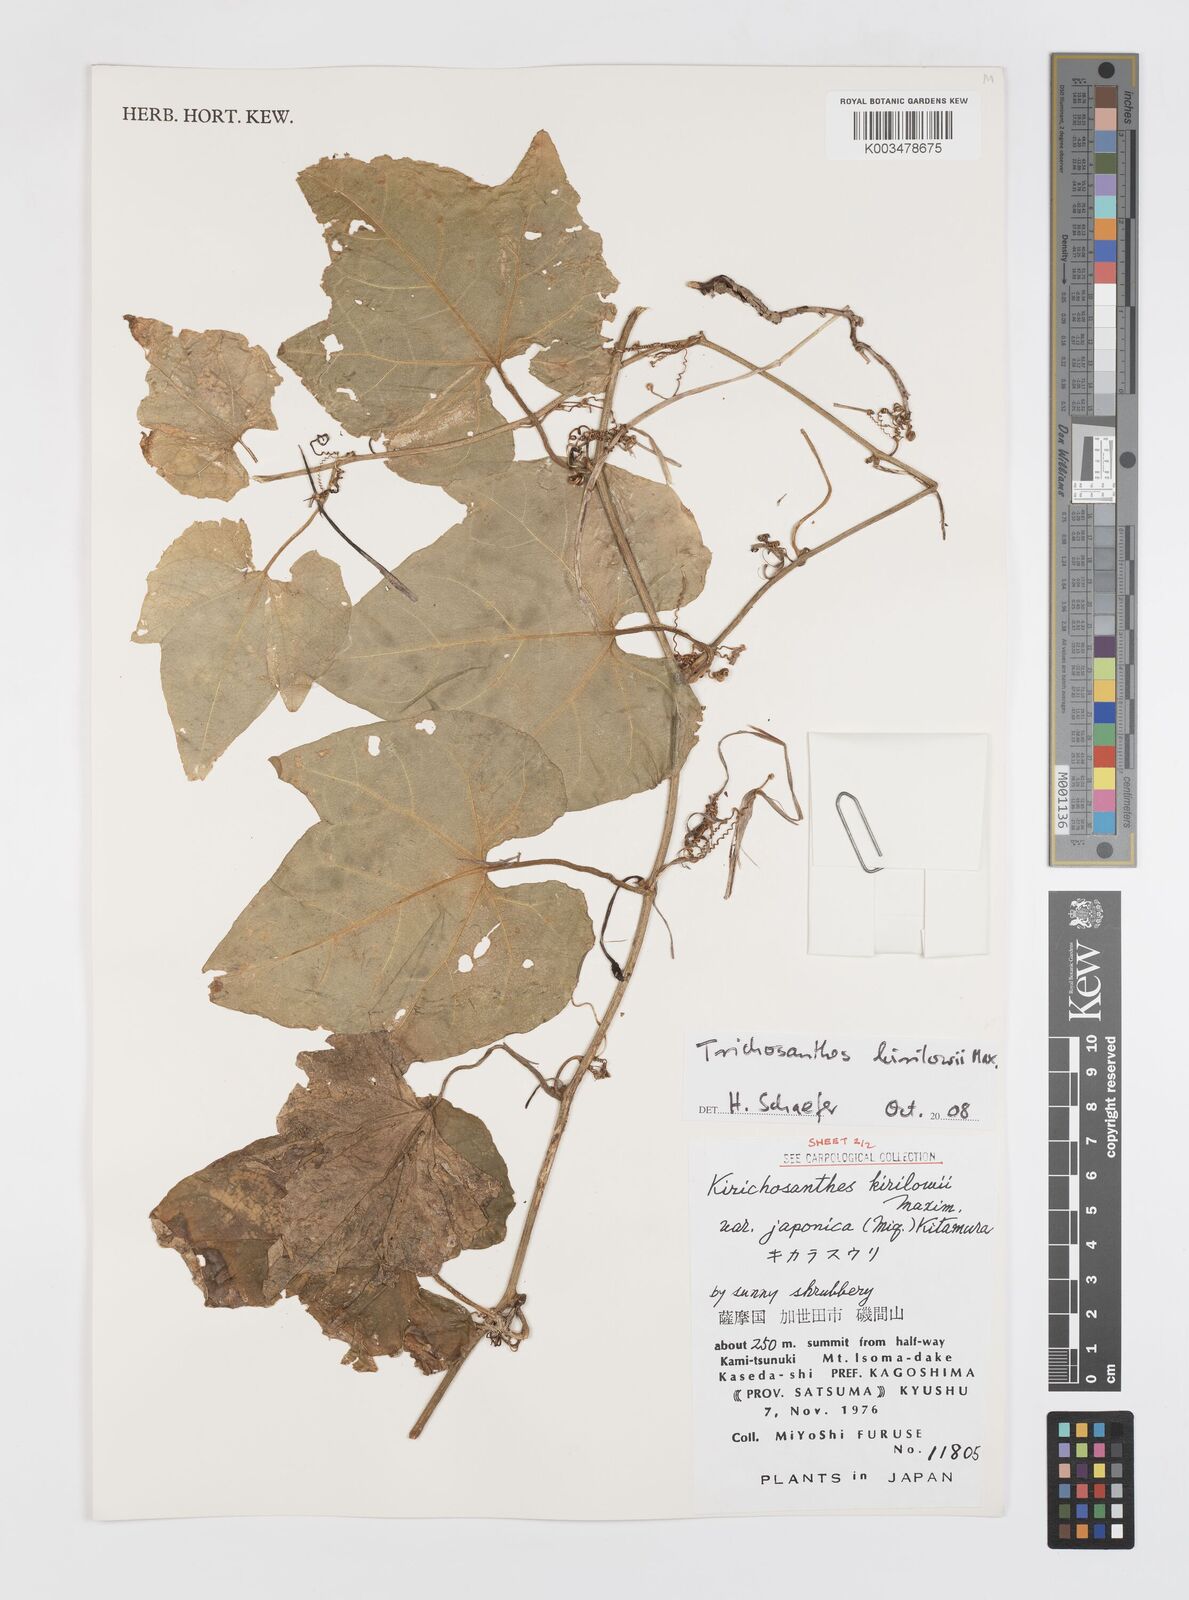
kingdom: Plantae
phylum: Tracheophyta
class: Magnoliopsida
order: Cucurbitales
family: Cucurbitaceae
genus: Trichosanthes
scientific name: Trichosanthes kirilowii
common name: Chinese-cucumber
